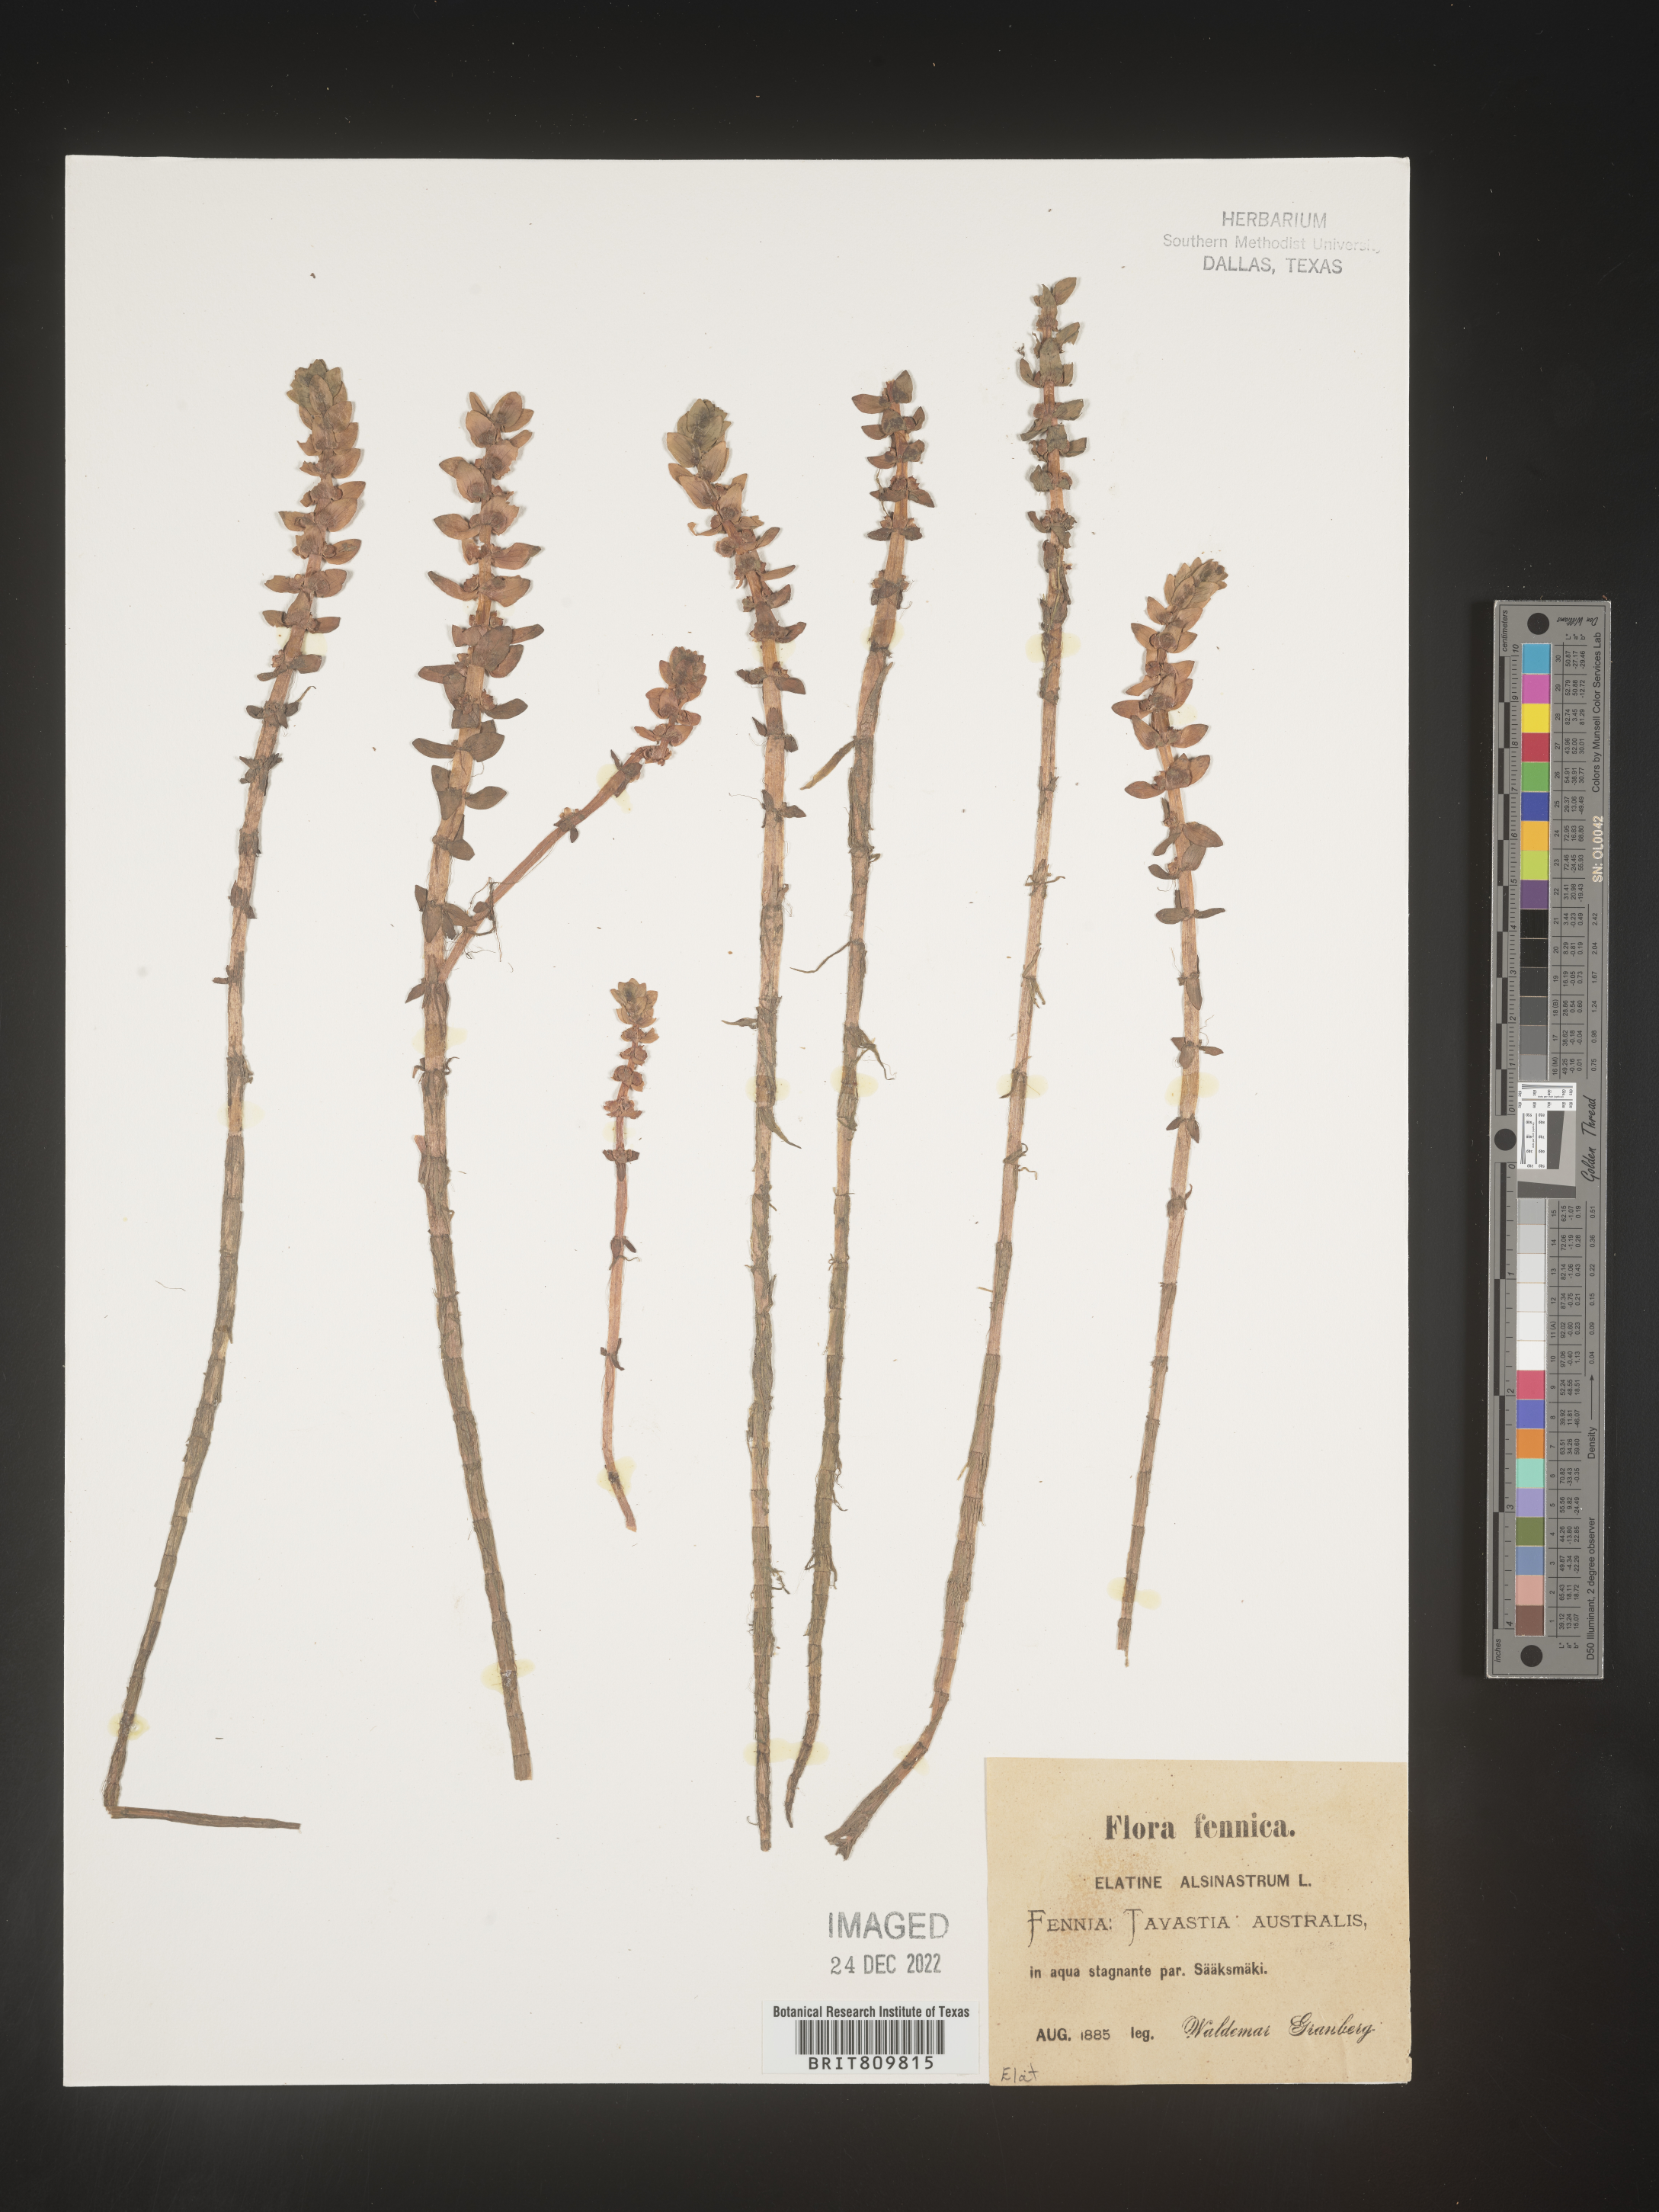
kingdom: Plantae
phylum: Tracheophyta
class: Magnoliopsida
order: Malpighiales
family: Elatinaceae
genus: Elatine
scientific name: Elatine
